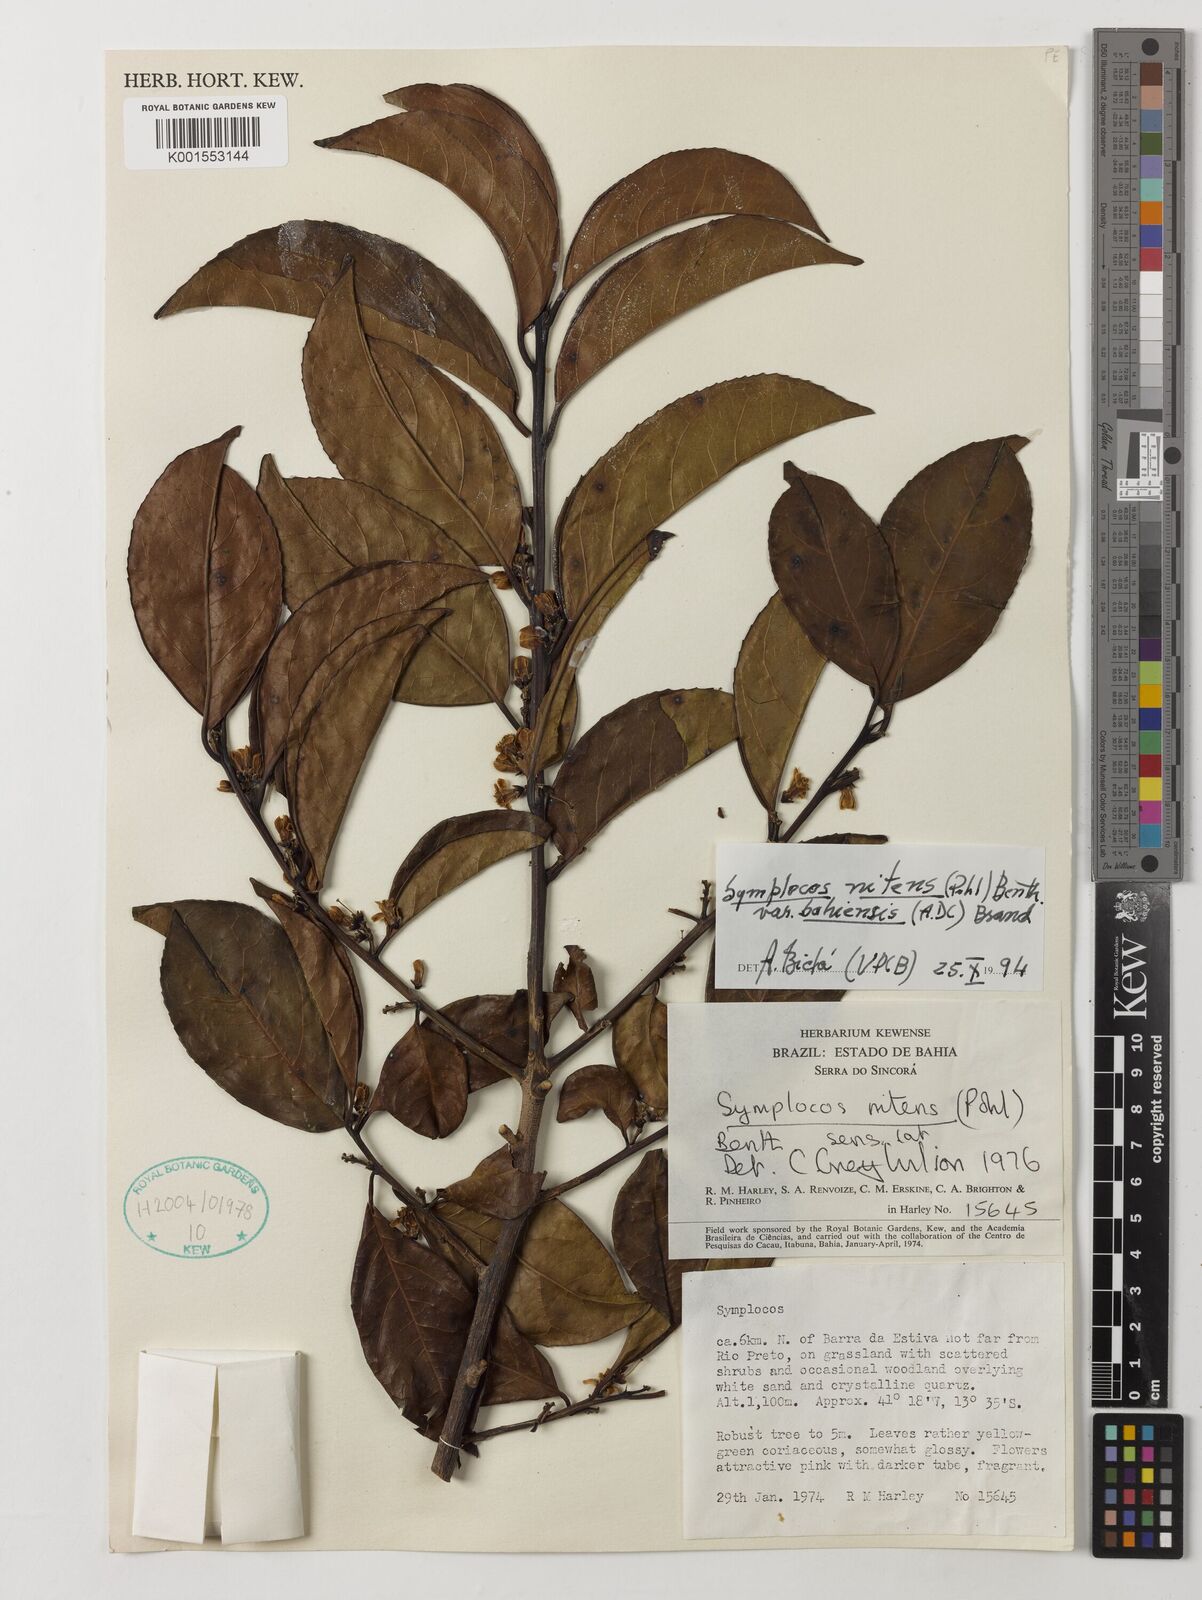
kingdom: Plantae
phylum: Tracheophyta
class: Magnoliopsida
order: Ericales
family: Symplocaceae
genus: Symplocos
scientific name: Symplocos nitens
